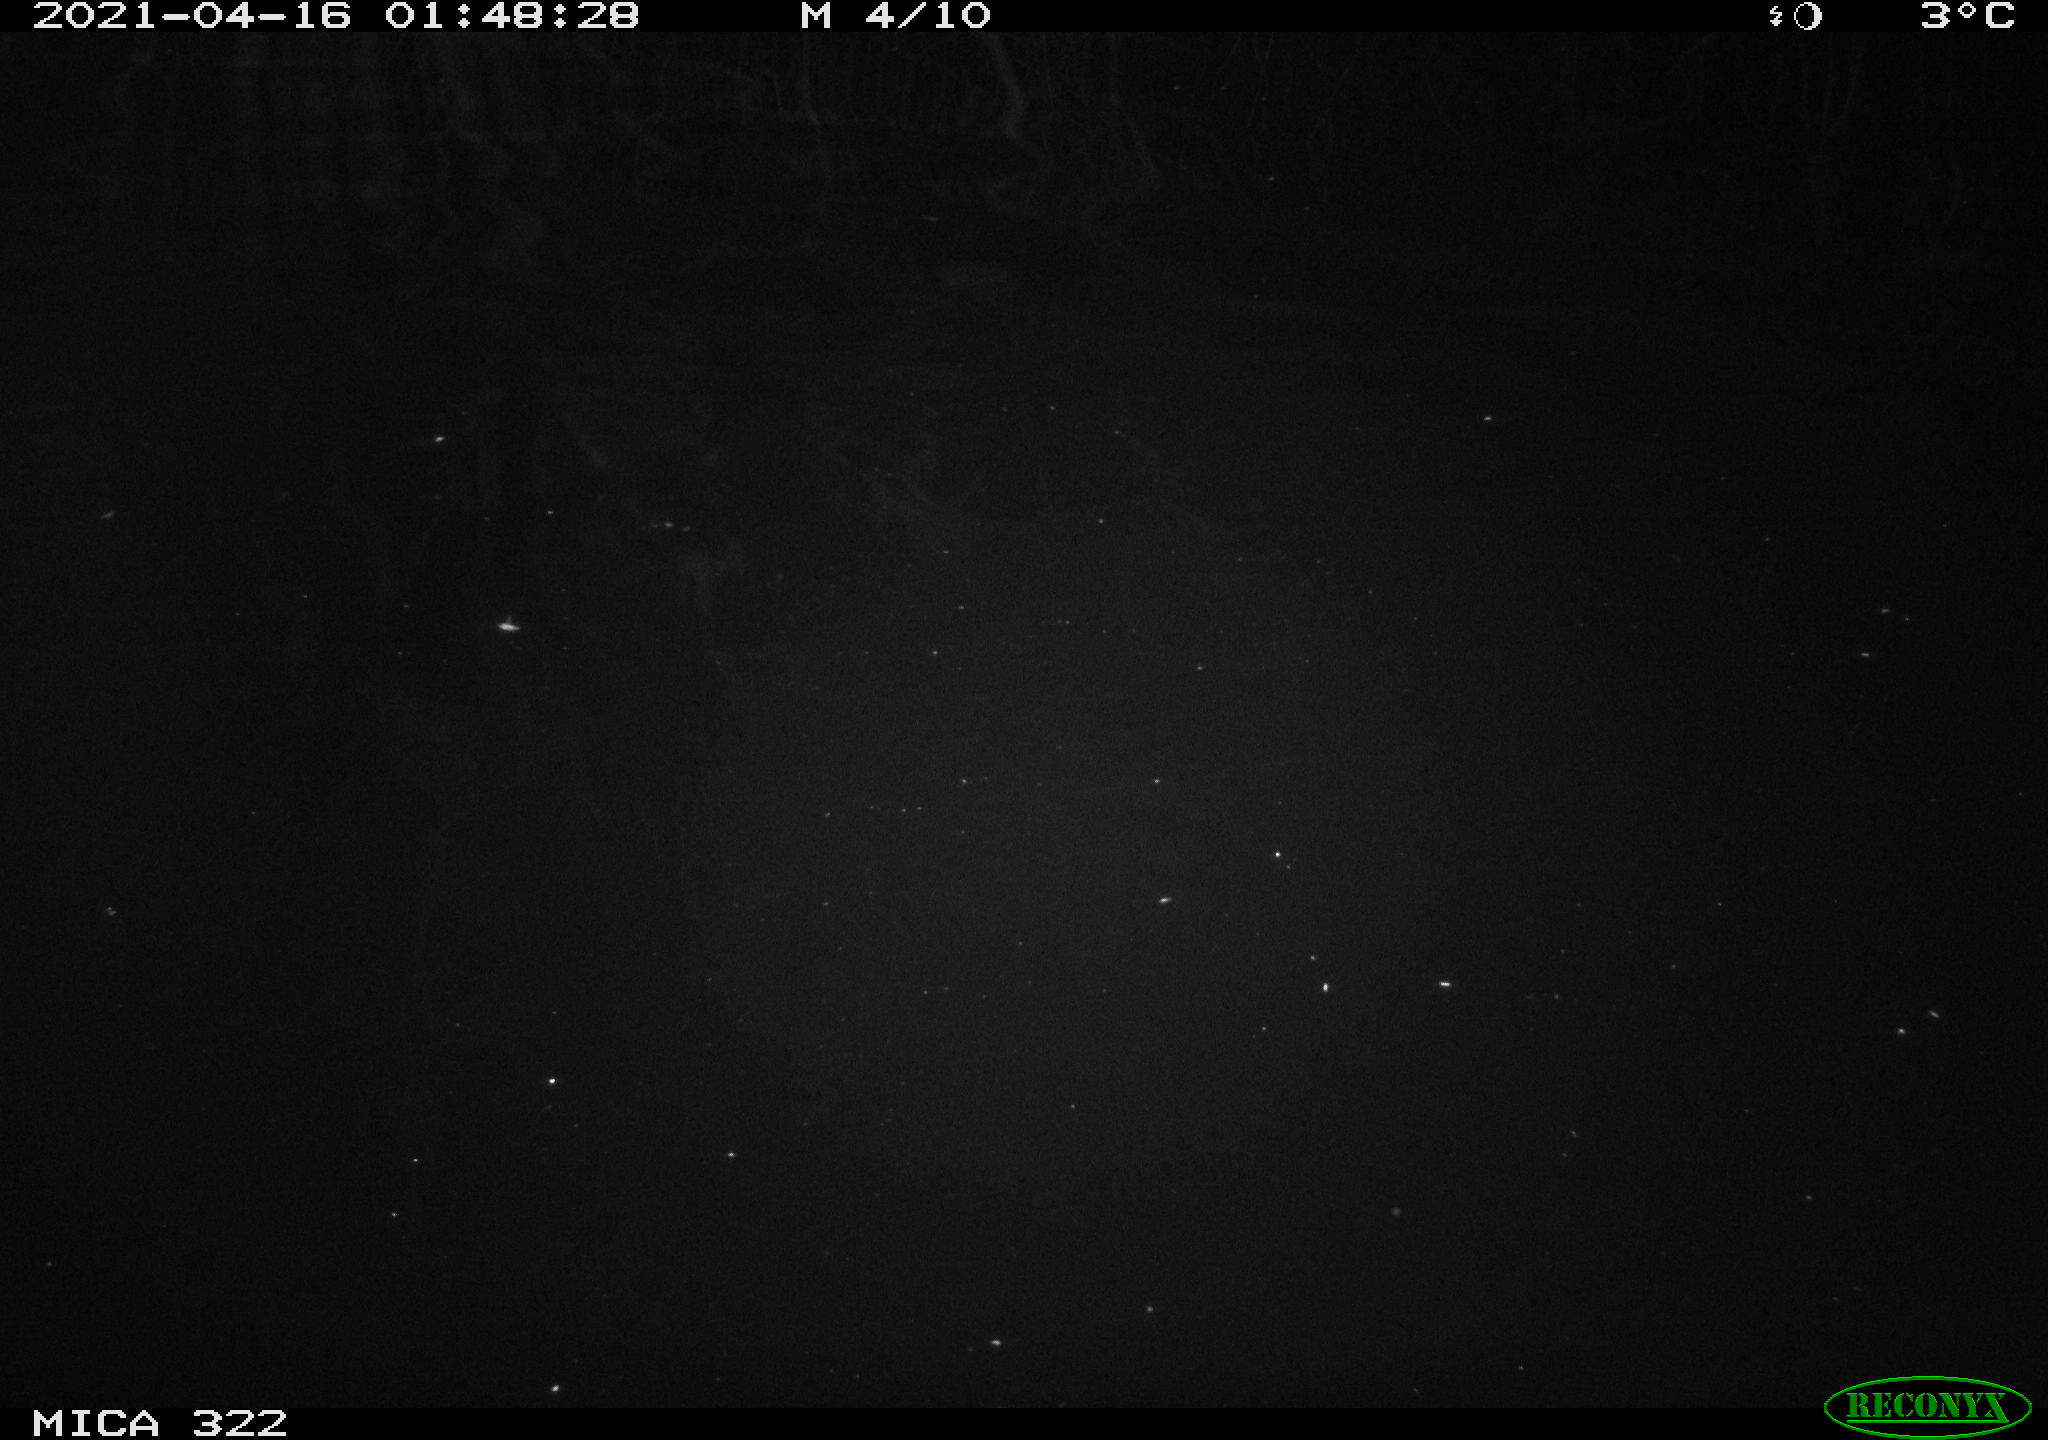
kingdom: Animalia
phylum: Chordata
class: Aves
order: Anseriformes
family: Anatidae
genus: Anas
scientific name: Anas platyrhynchos
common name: Mallard
